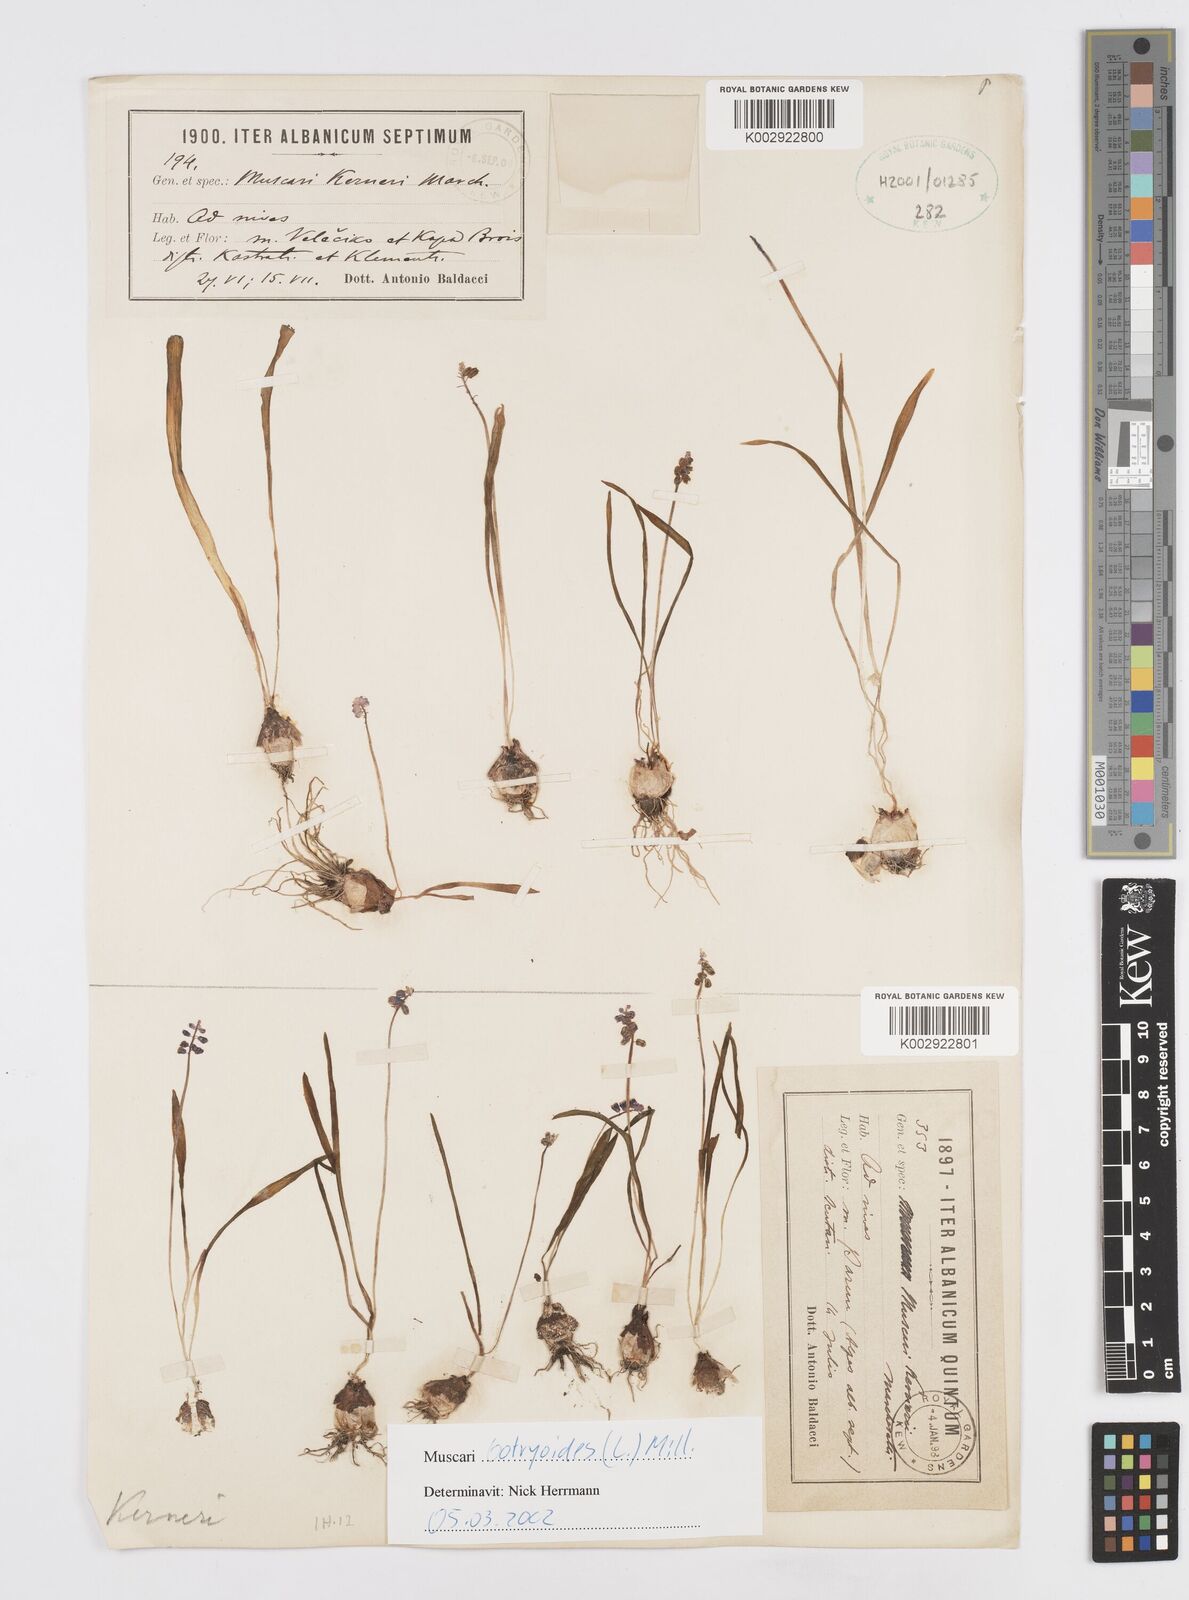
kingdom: Plantae
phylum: Tracheophyta
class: Liliopsida
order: Asparagales
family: Asparagaceae
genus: Muscari
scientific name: Muscari botryoides
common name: Compact grape-hyacinth
